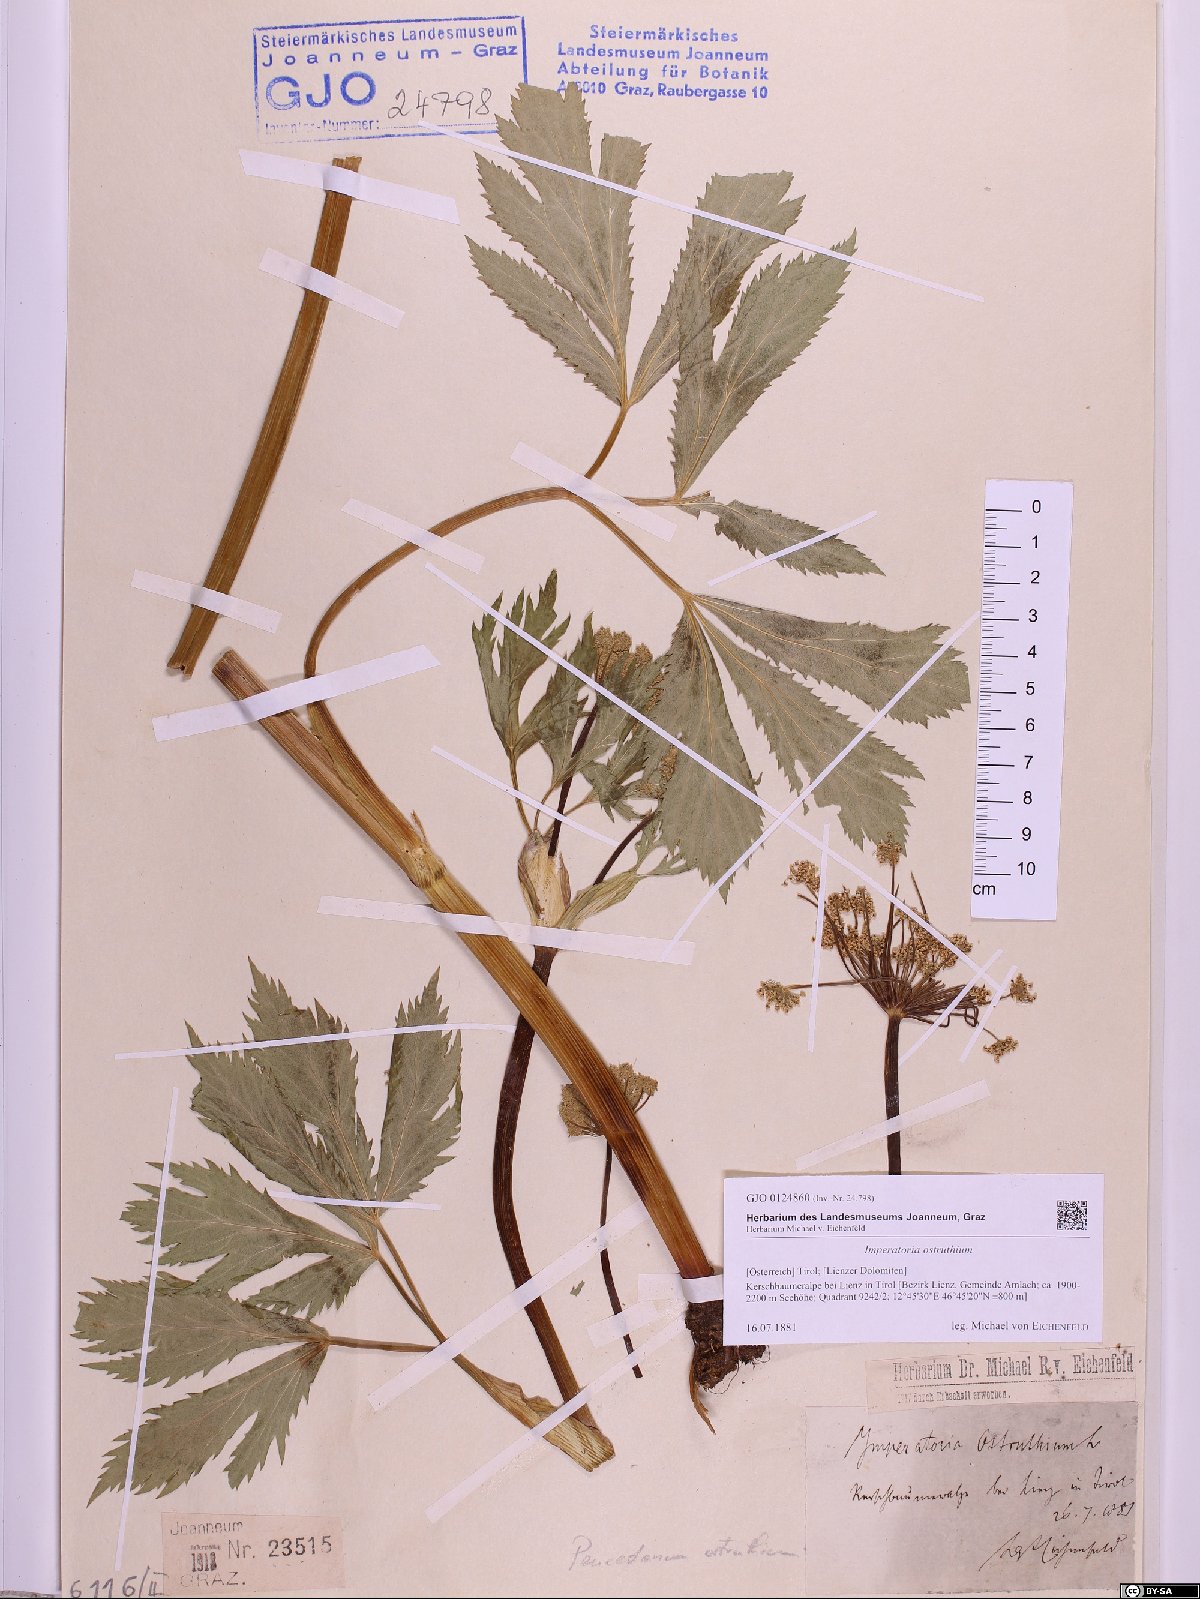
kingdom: Plantae
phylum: Tracheophyta
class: Magnoliopsida
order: Apiales
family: Apiaceae
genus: Imperatoria
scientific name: Imperatoria ostruthium
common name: Masterwort
